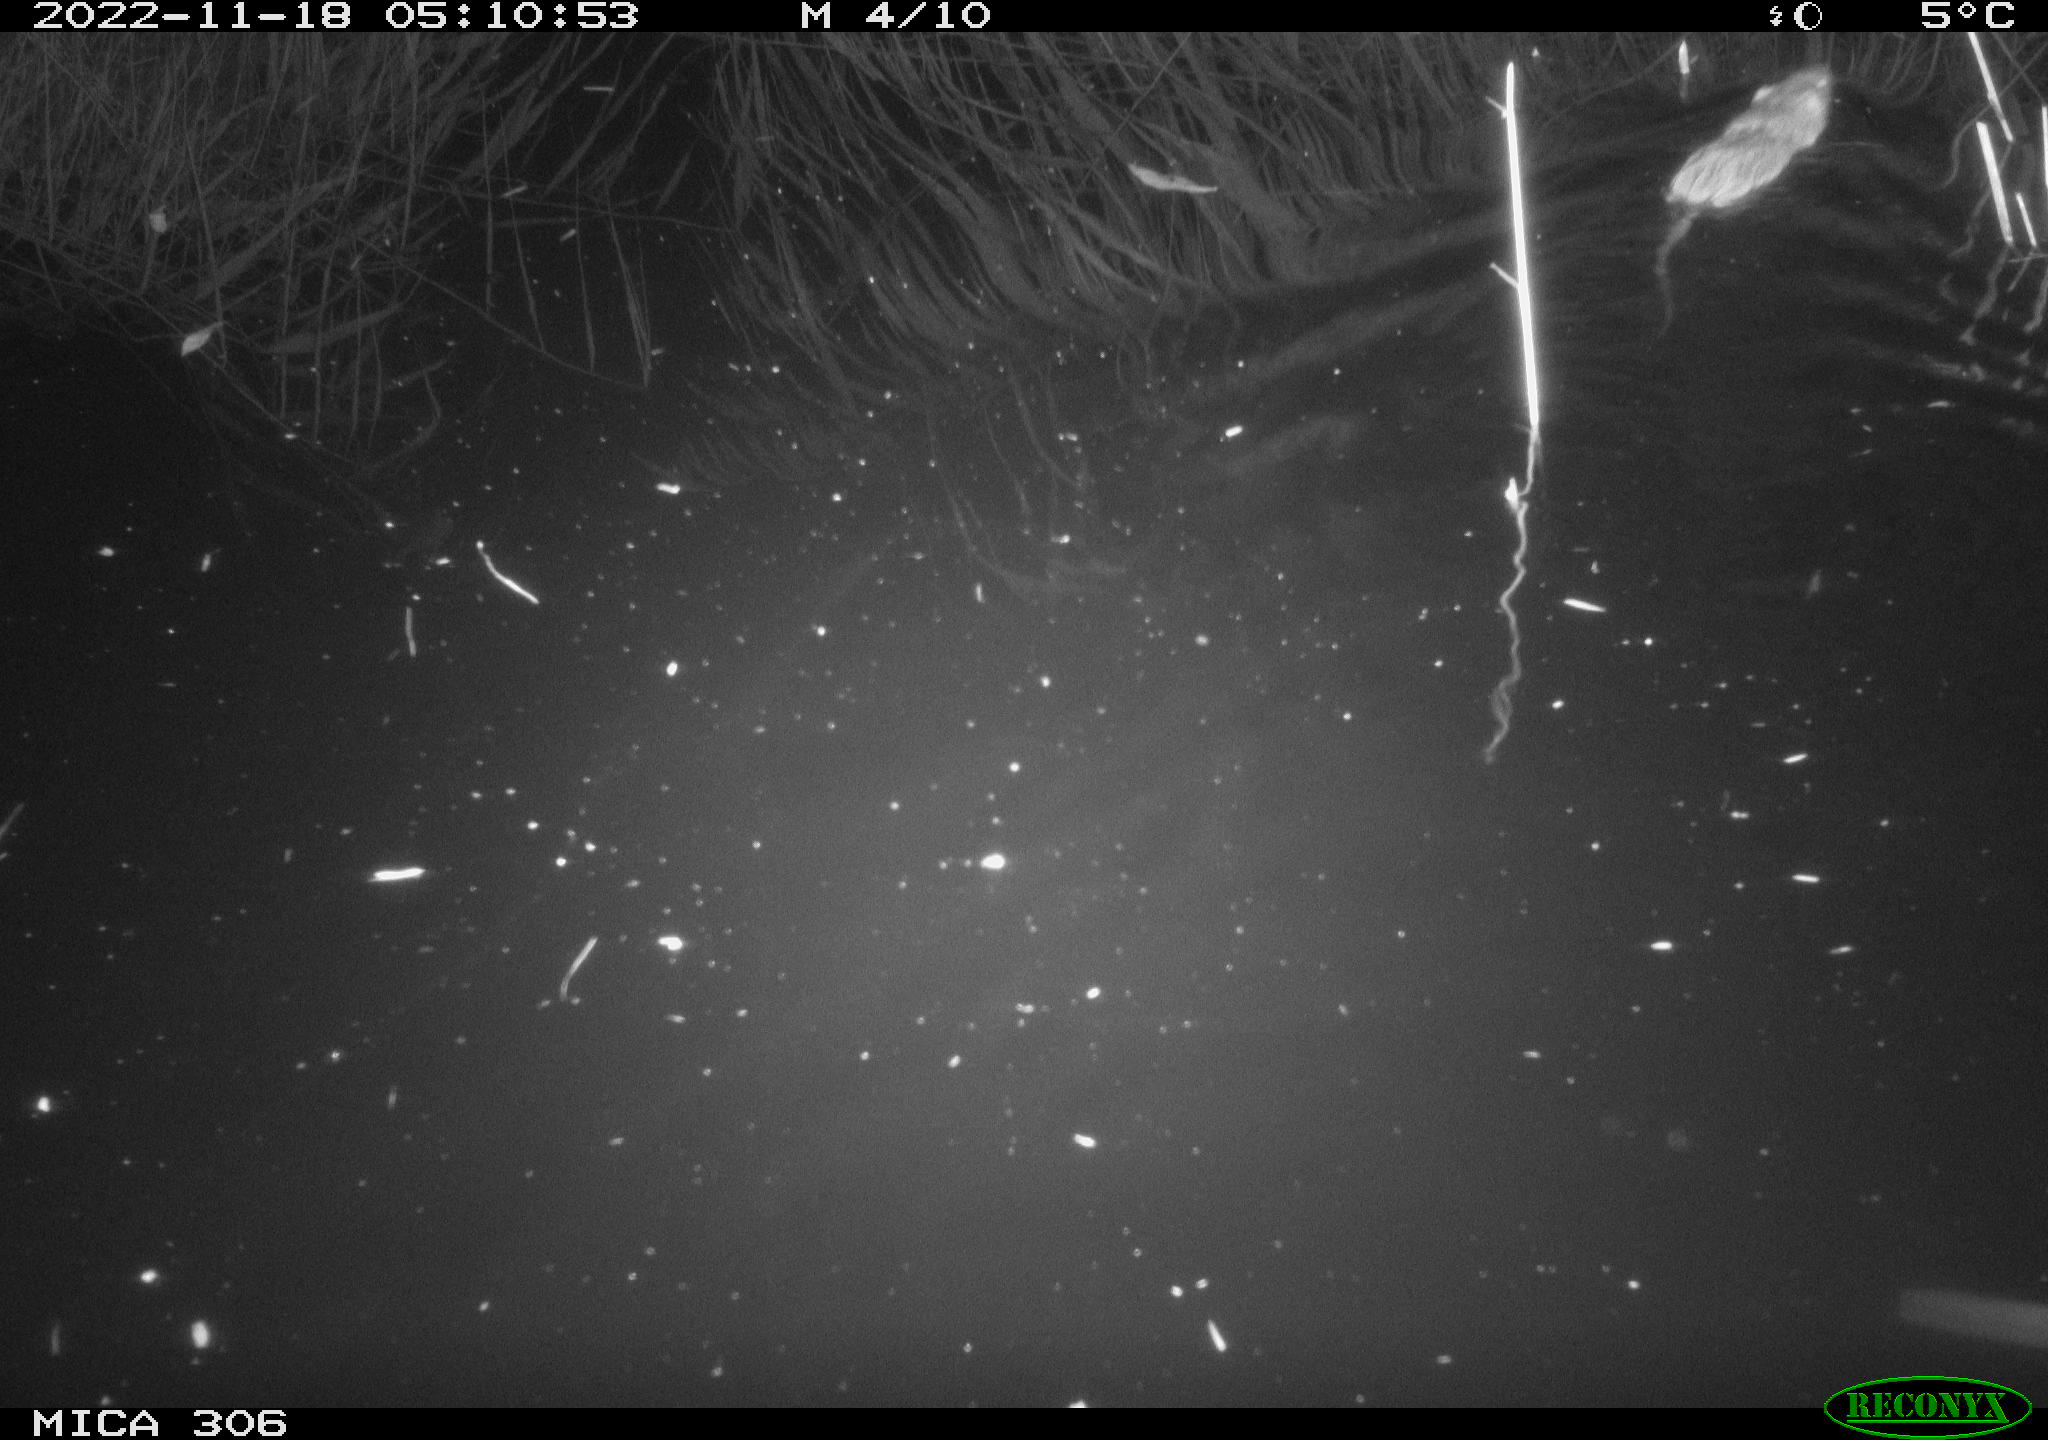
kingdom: Animalia
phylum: Chordata
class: Mammalia
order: Rodentia
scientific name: Rodentia
